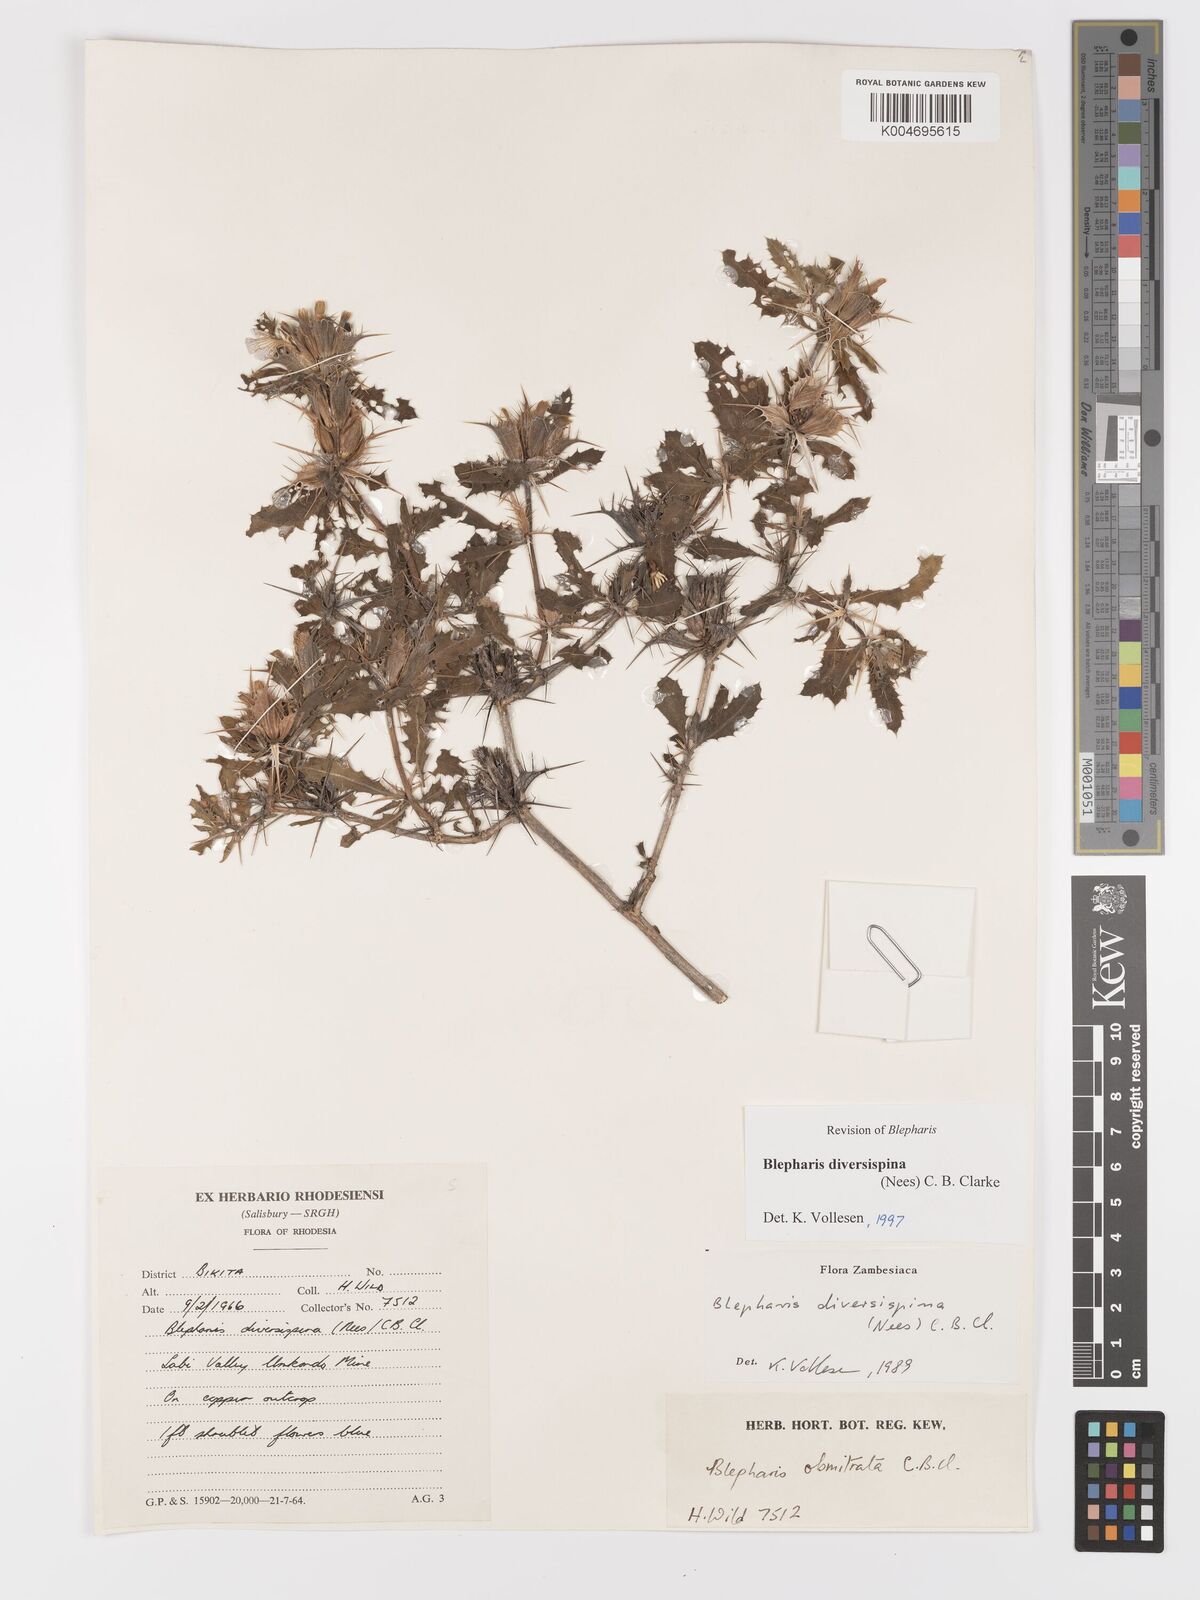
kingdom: Plantae
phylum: Tracheophyta
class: Magnoliopsida
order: Lamiales
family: Acanthaceae
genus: Blepharis
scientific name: Blepharis diversispina
